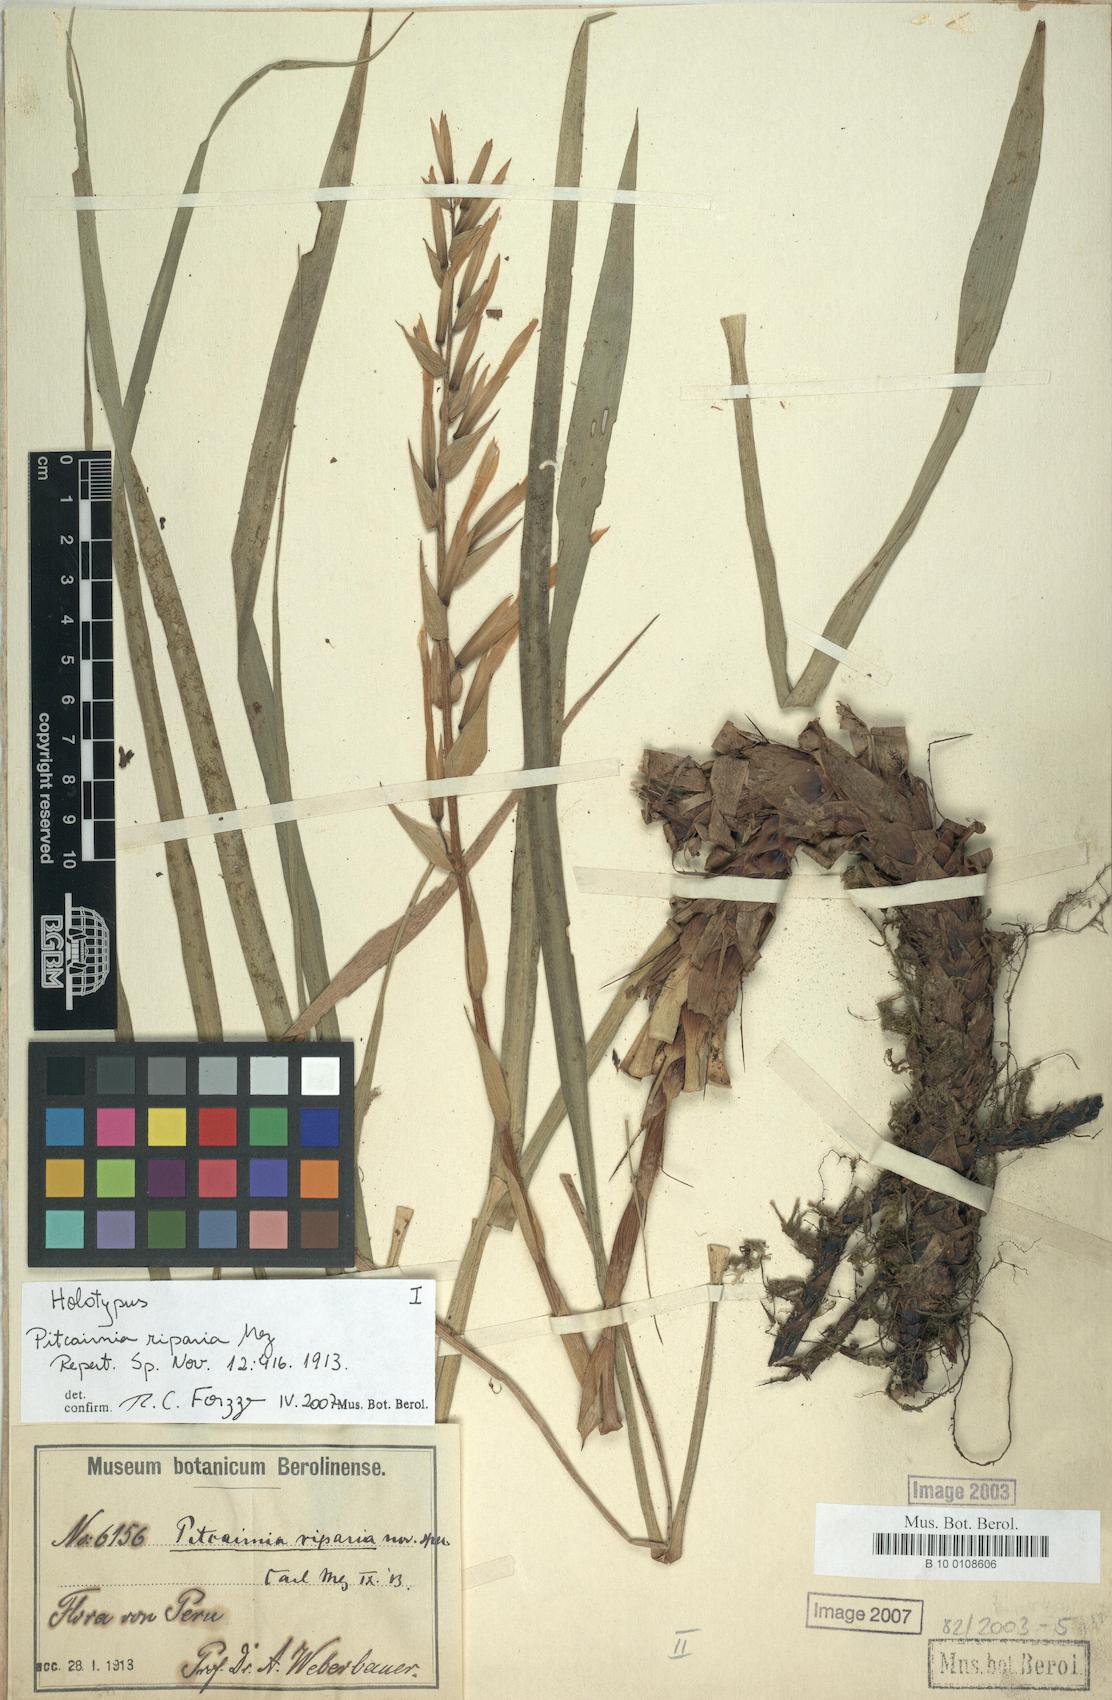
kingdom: Plantae
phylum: Tracheophyta
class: Liliopsida
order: Poales
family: Bromeliaceae
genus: Pitcairnia
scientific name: Pitcairnia riparia
